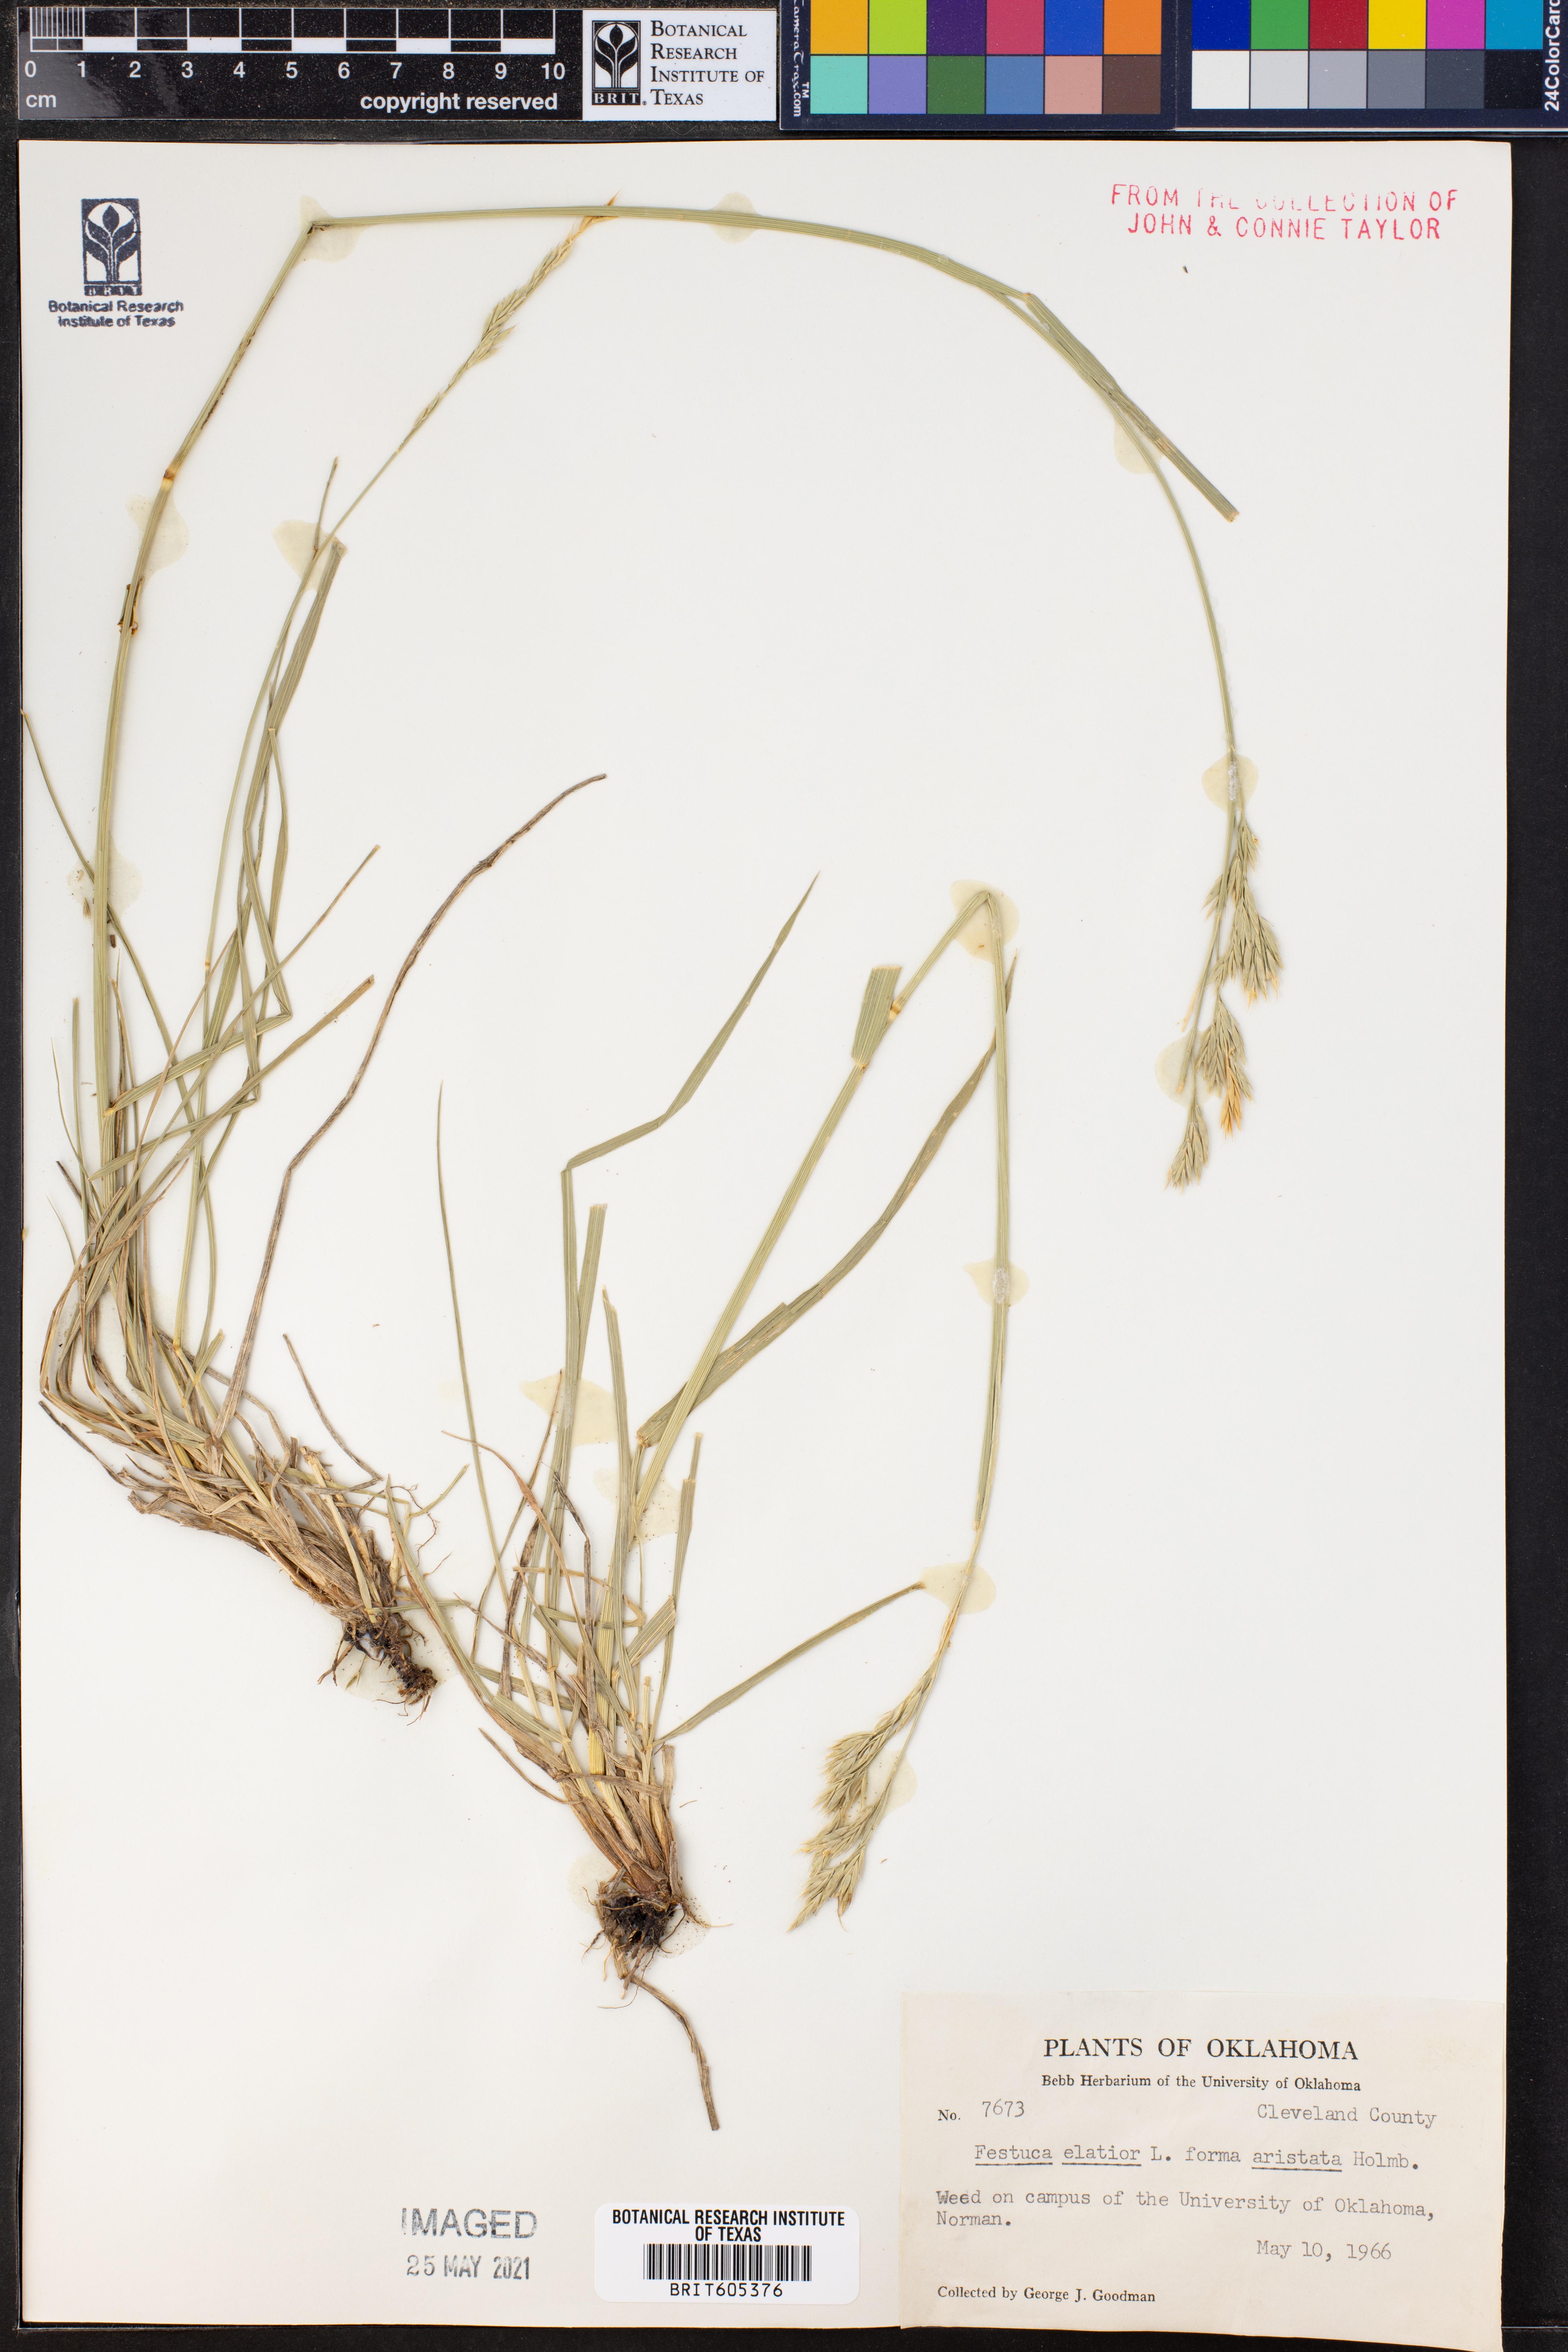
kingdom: Plantae
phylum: Tracheophyta
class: Liliopsida
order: Poales
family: Poaceae
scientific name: Poaceae
